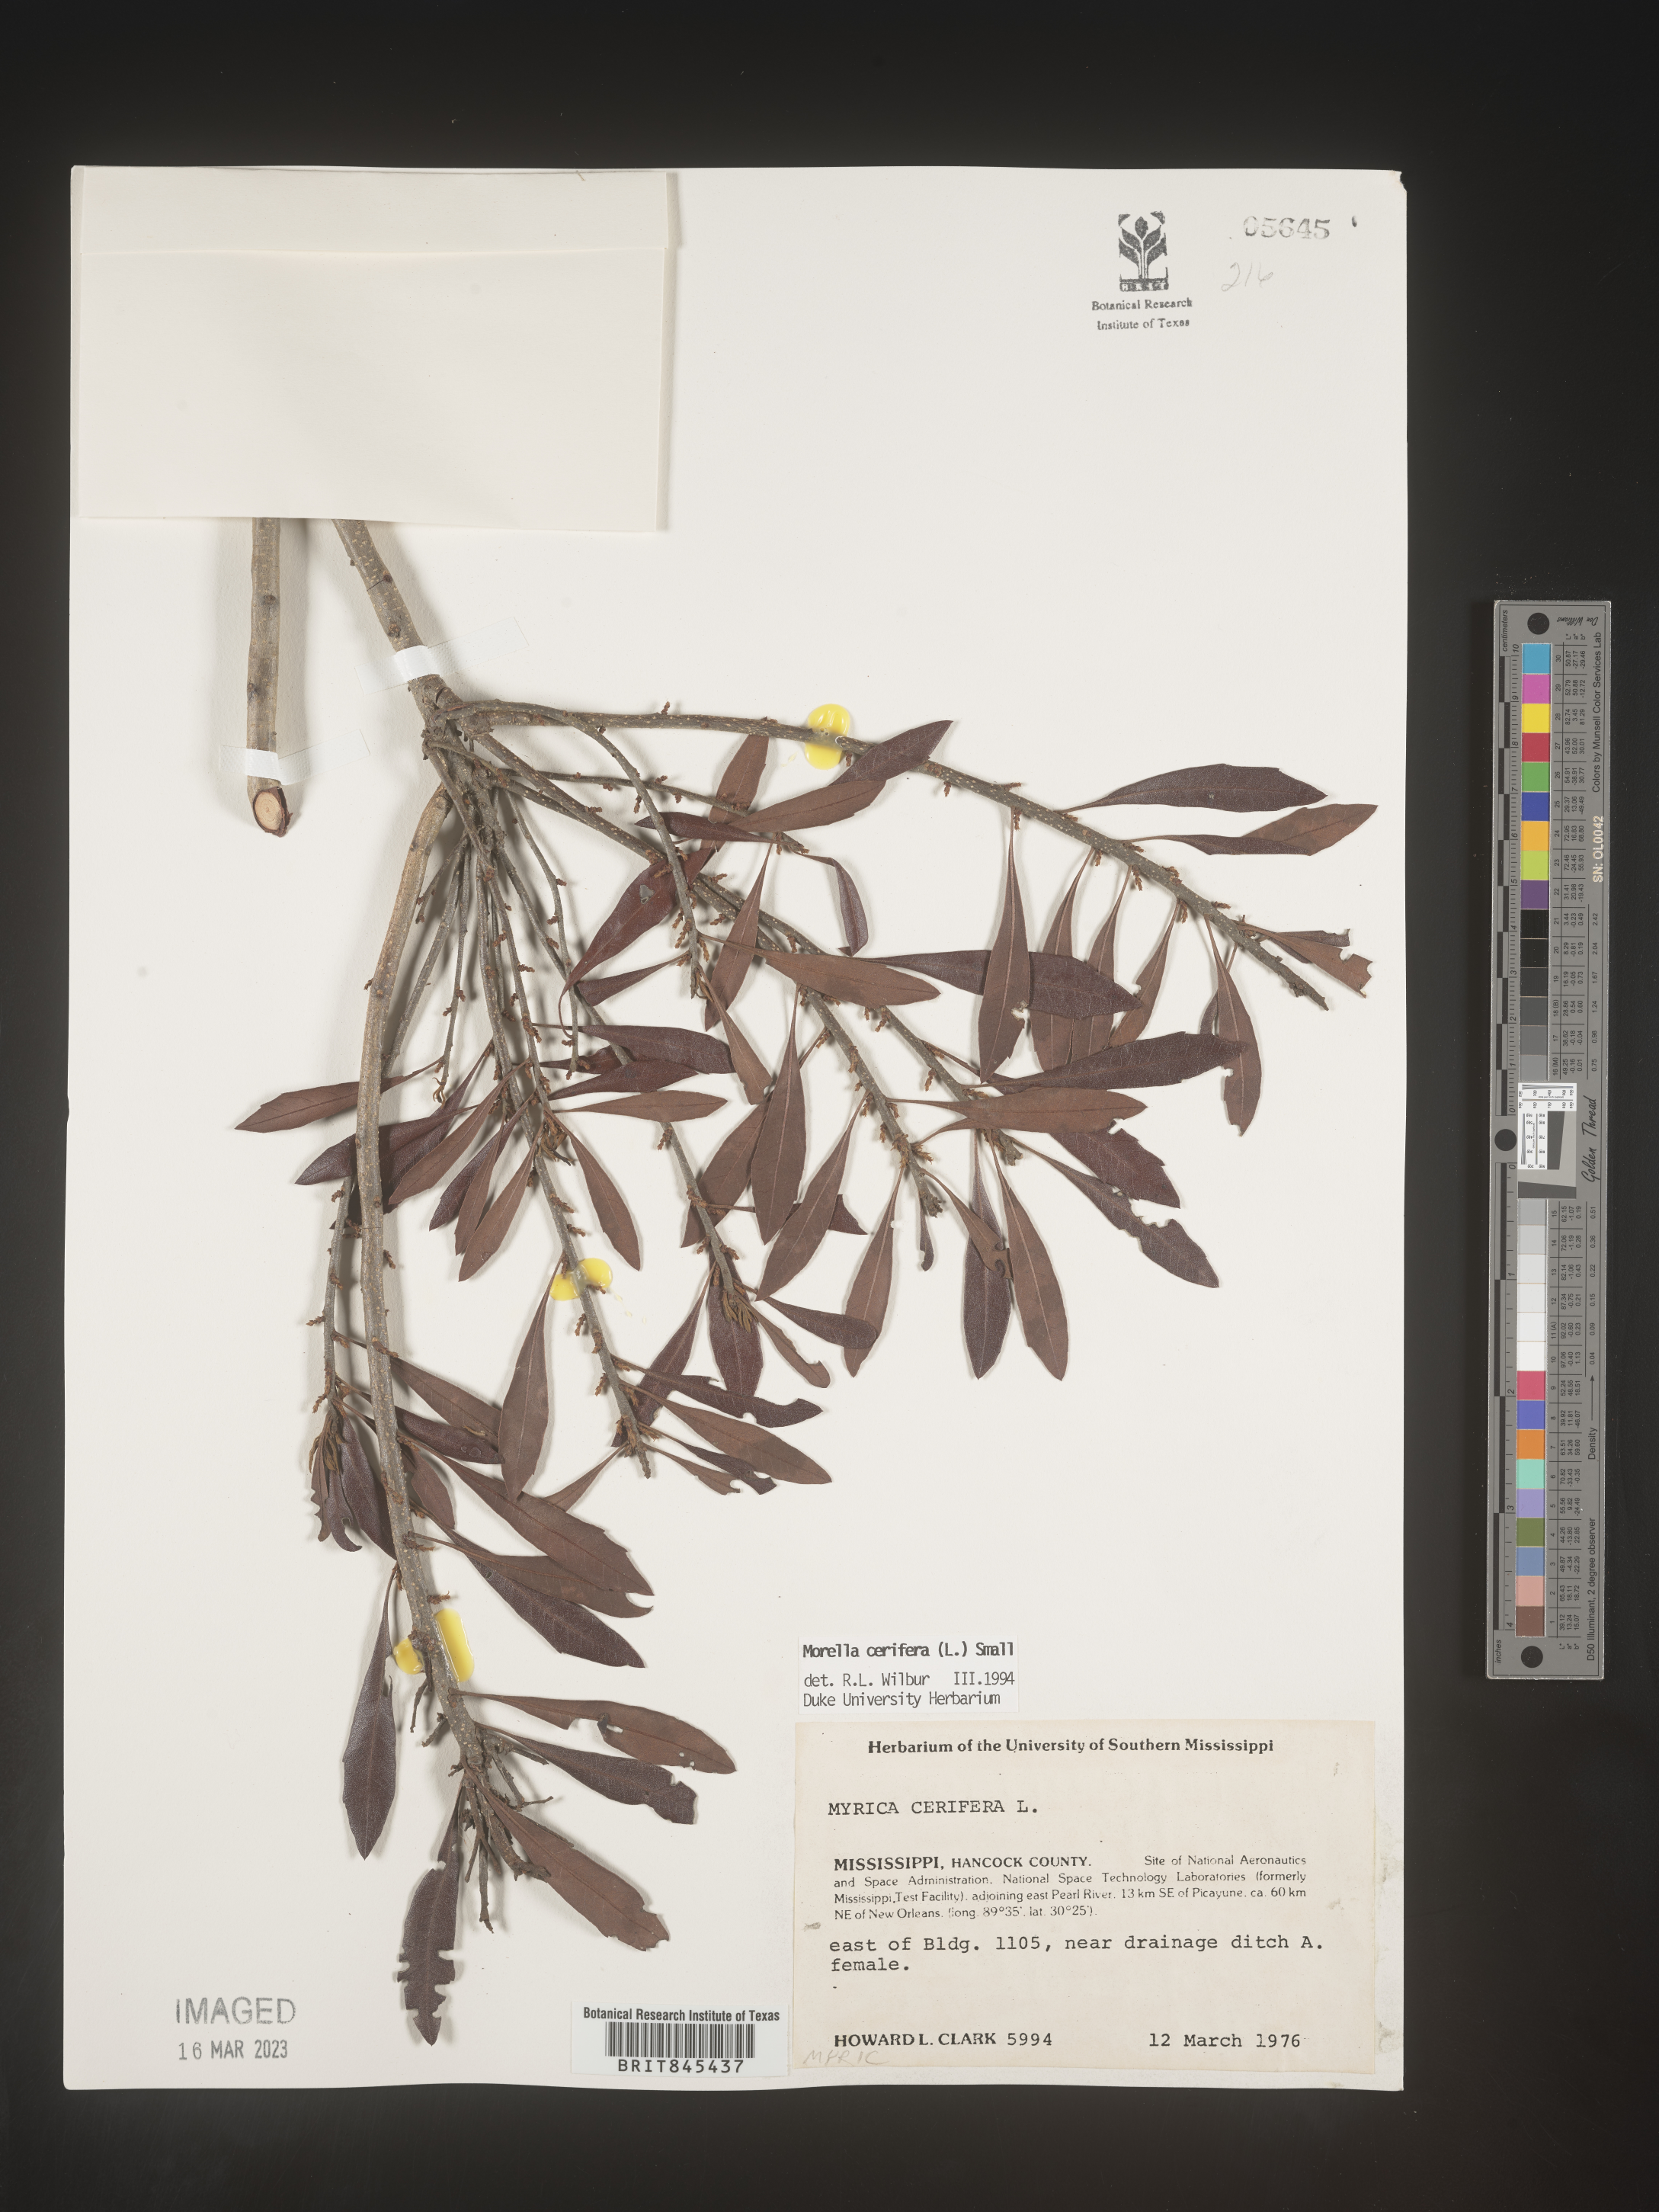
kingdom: Plantae
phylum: Tracheophyta
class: Magnoliopsida
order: Fagales
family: Myricaceae
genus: Morella
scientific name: Morella cerifera
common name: Wax myrtle
